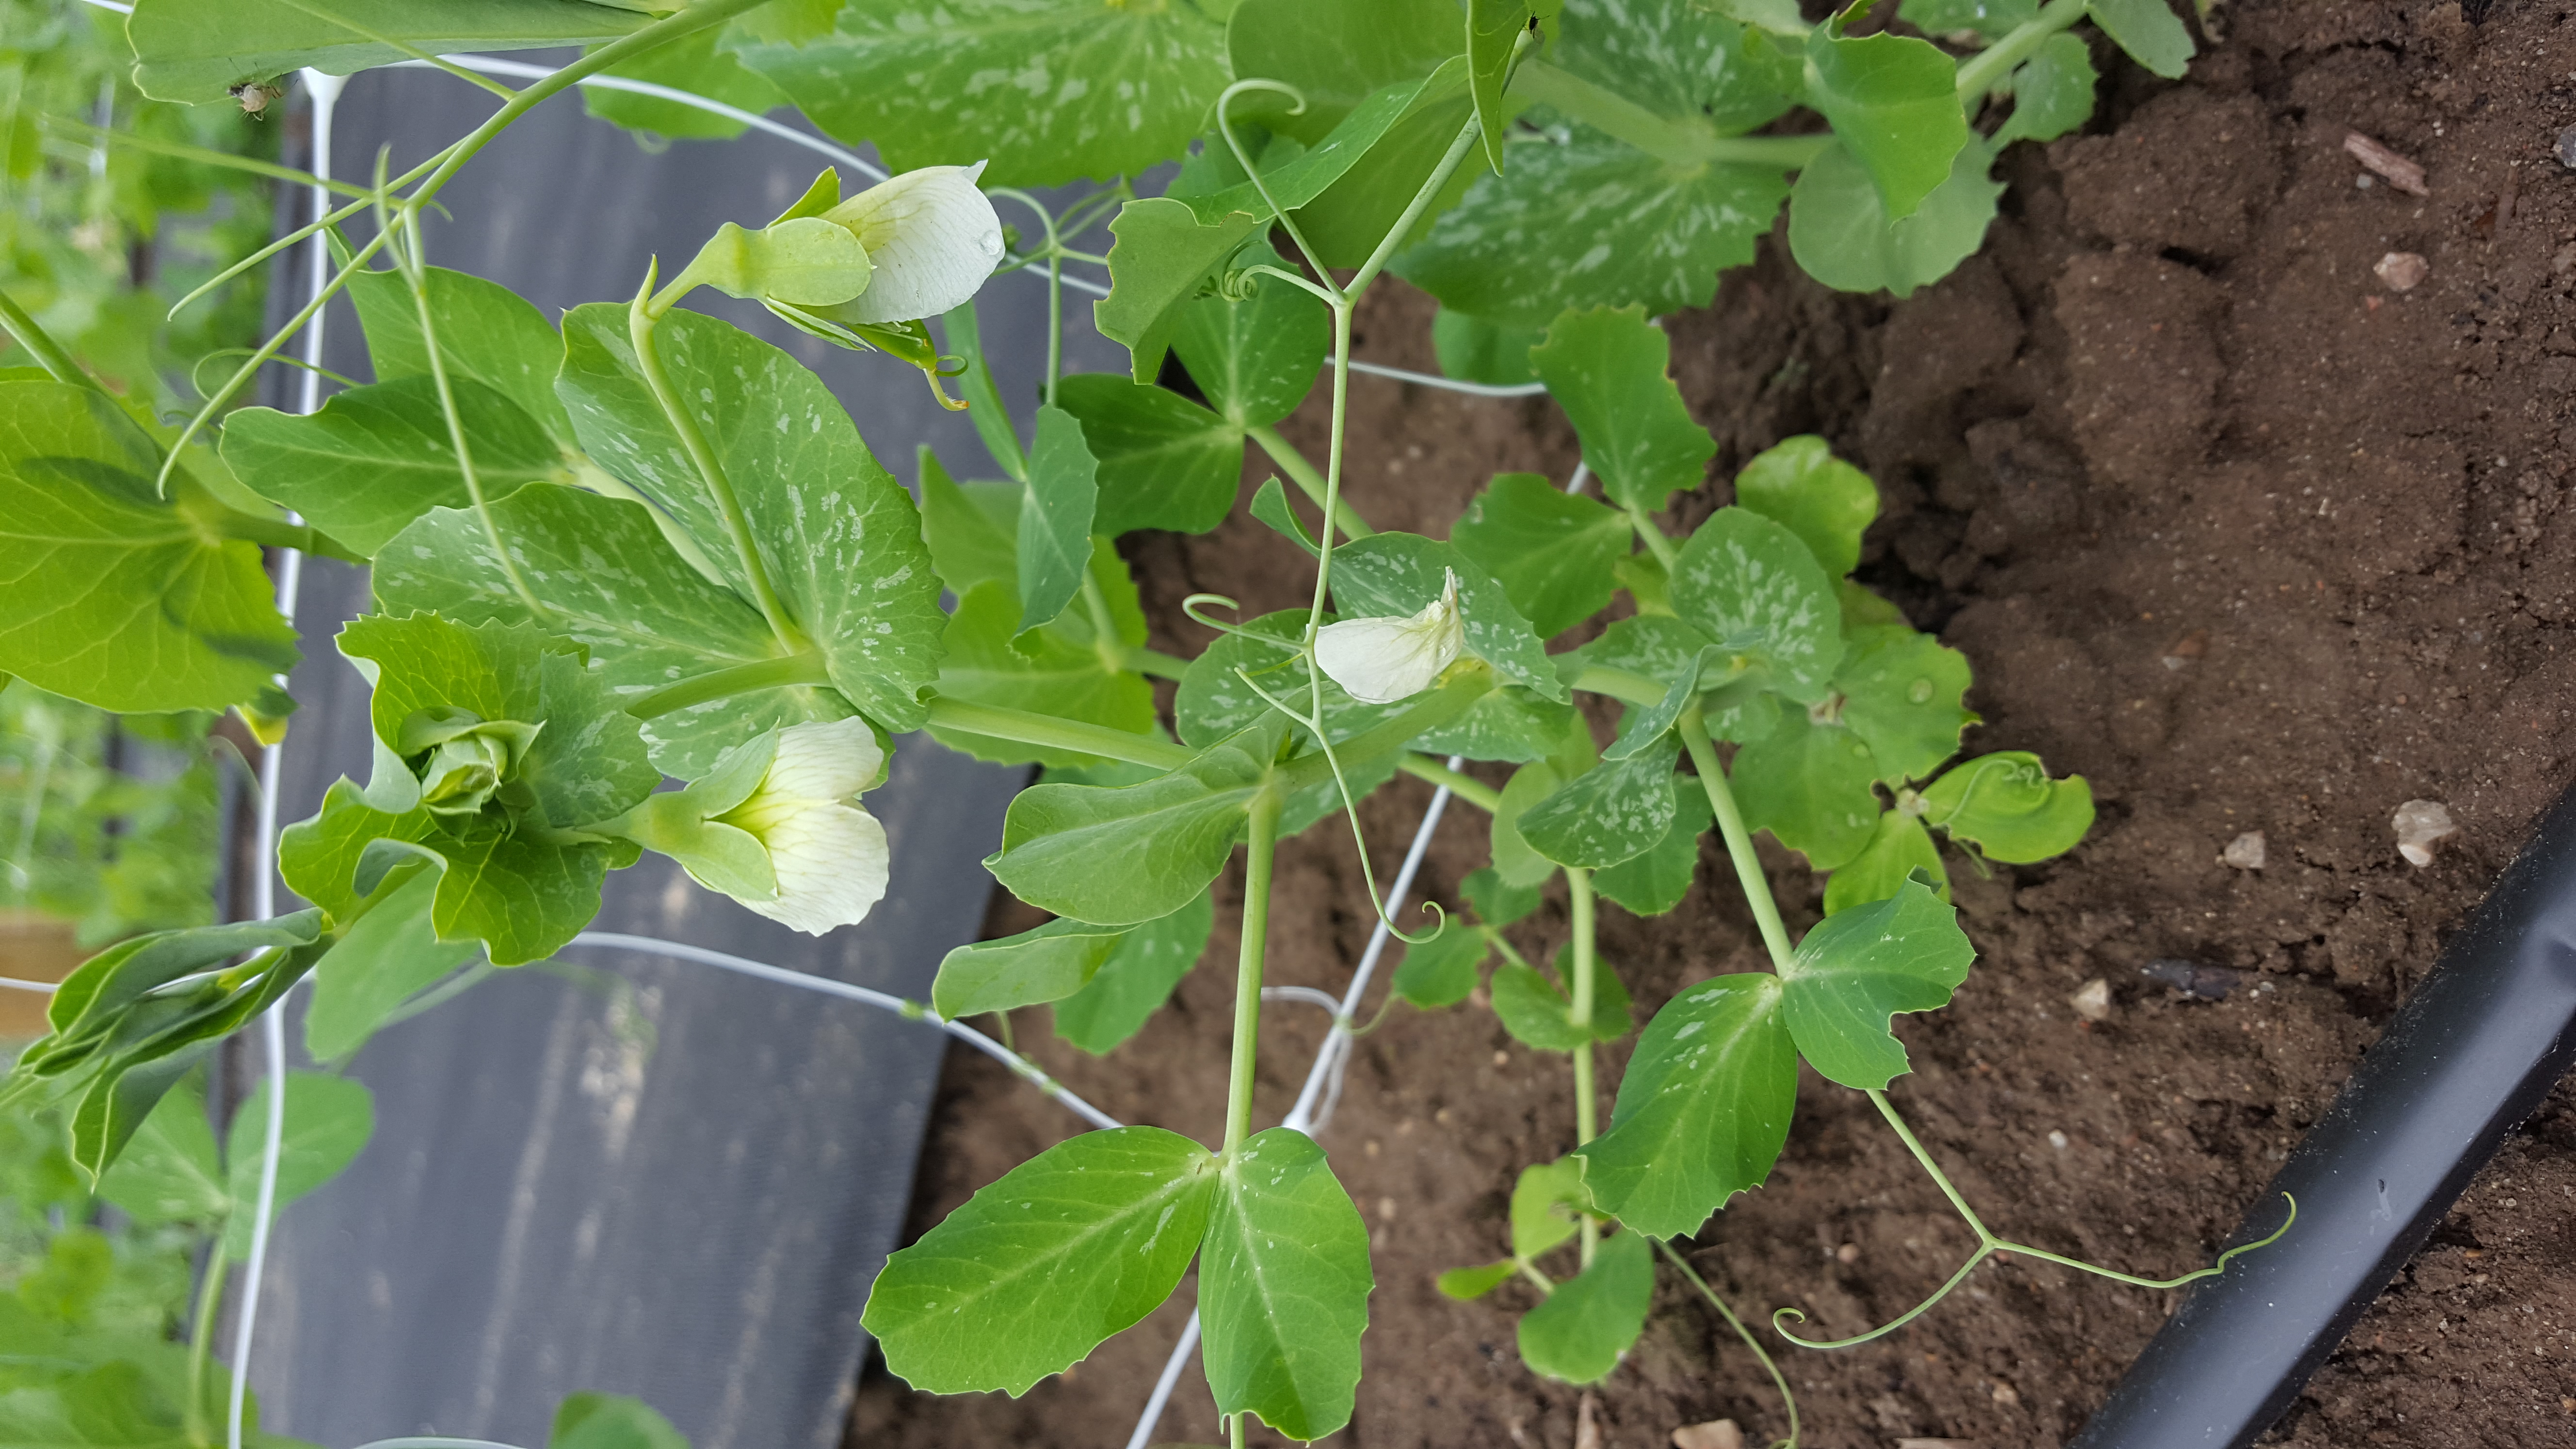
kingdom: Plantae
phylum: Tracheophyta
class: Magnoliopsida
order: Fabales
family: Fabaceae
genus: Lathyrus
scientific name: Lathyrus oleraceus
